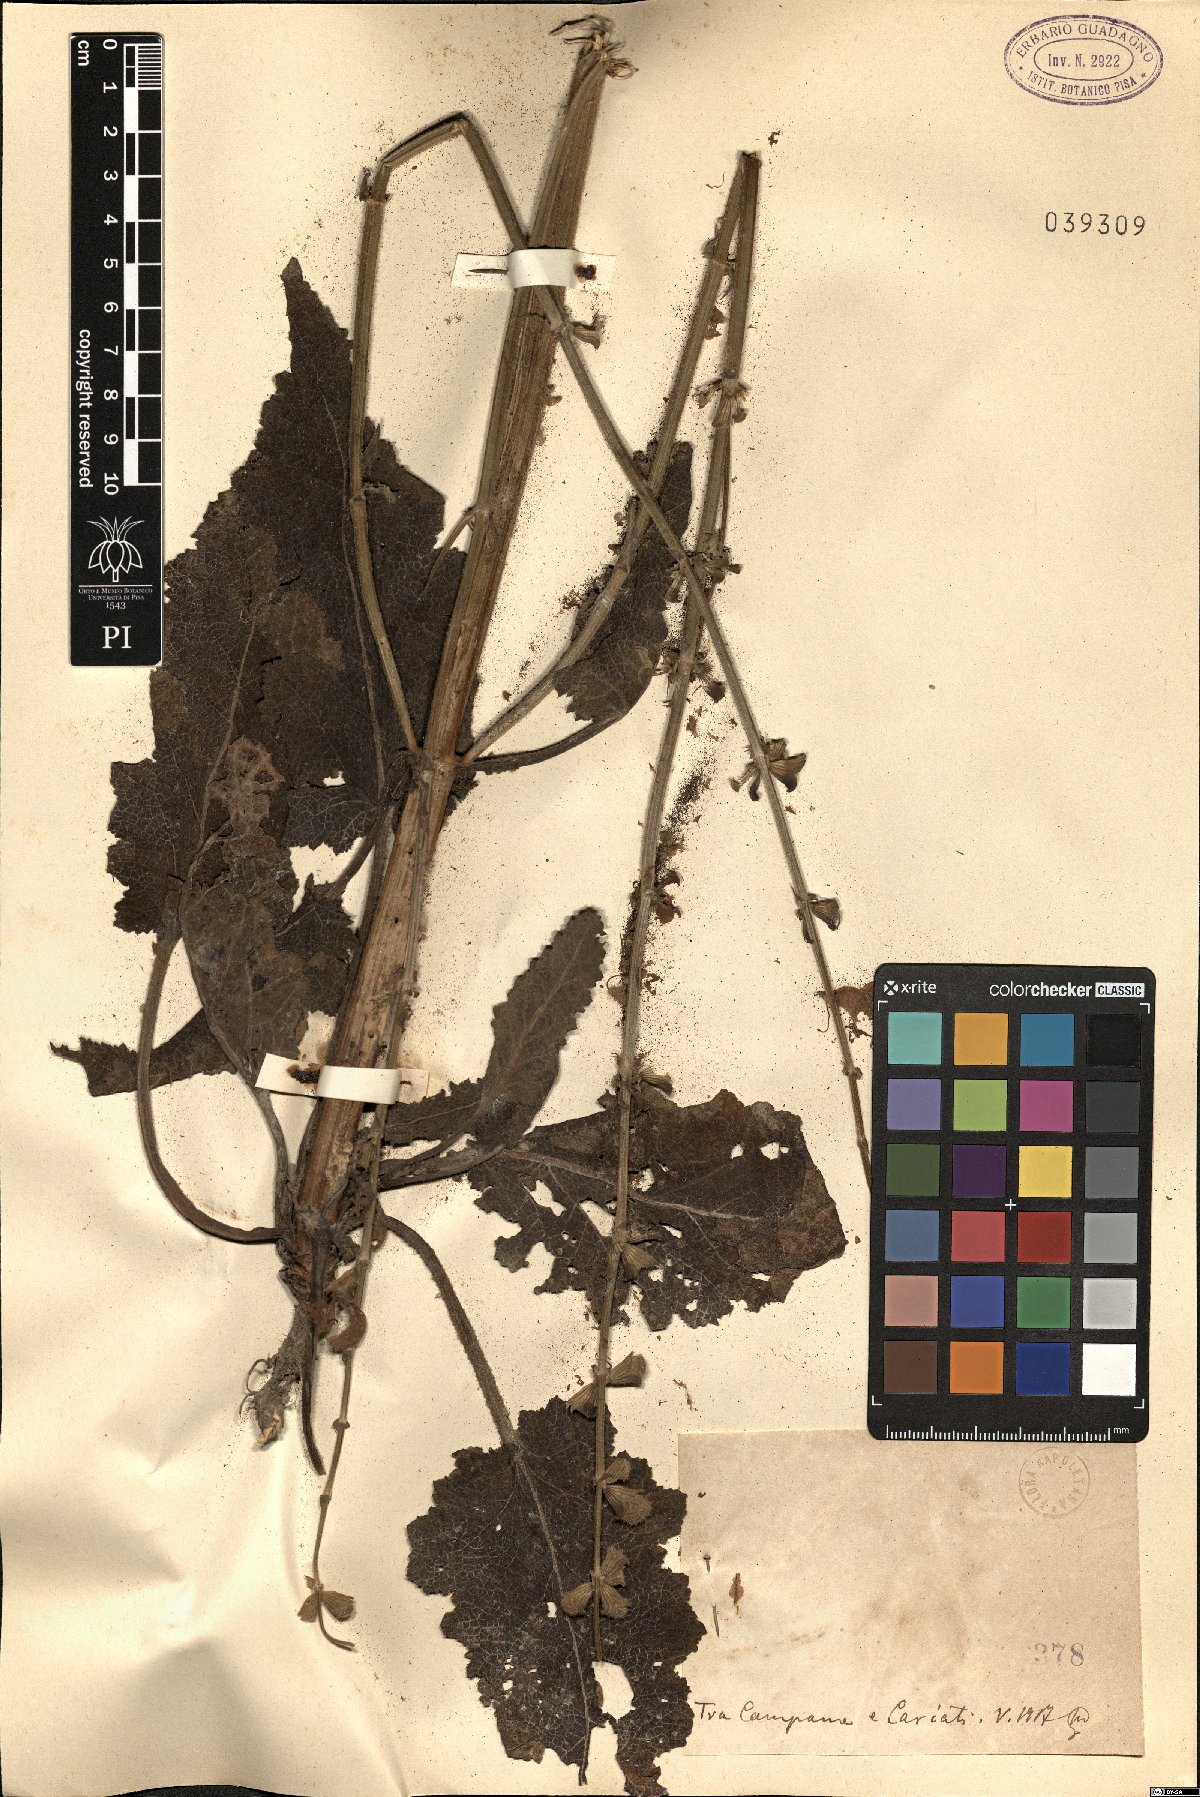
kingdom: Plantae
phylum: Tracheophyta
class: Magnoliopsida
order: Lamiales
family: Lamiaceae
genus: Salvia
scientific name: Salvia
